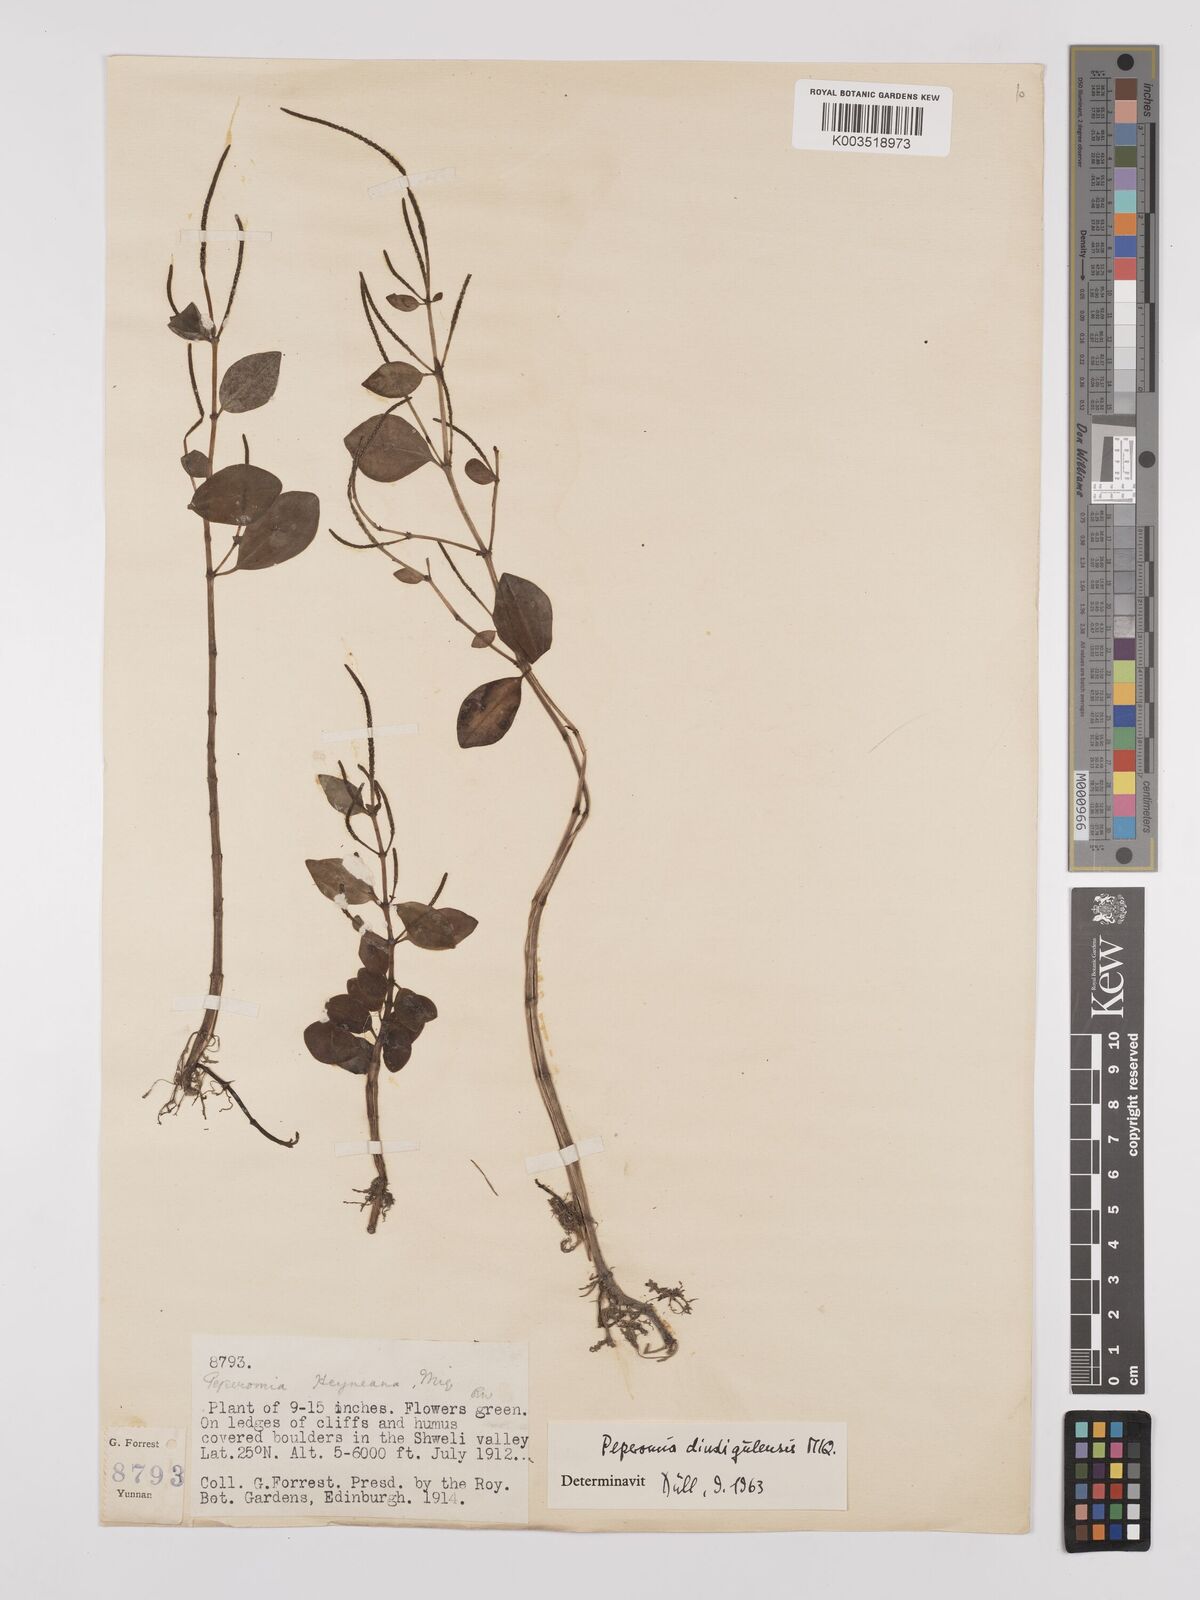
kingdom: Plantae
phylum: Tracheophyta
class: Magnoliopsida
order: Piperales
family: Piperaceae
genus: Peperomia
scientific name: Peperomia leptostachya
